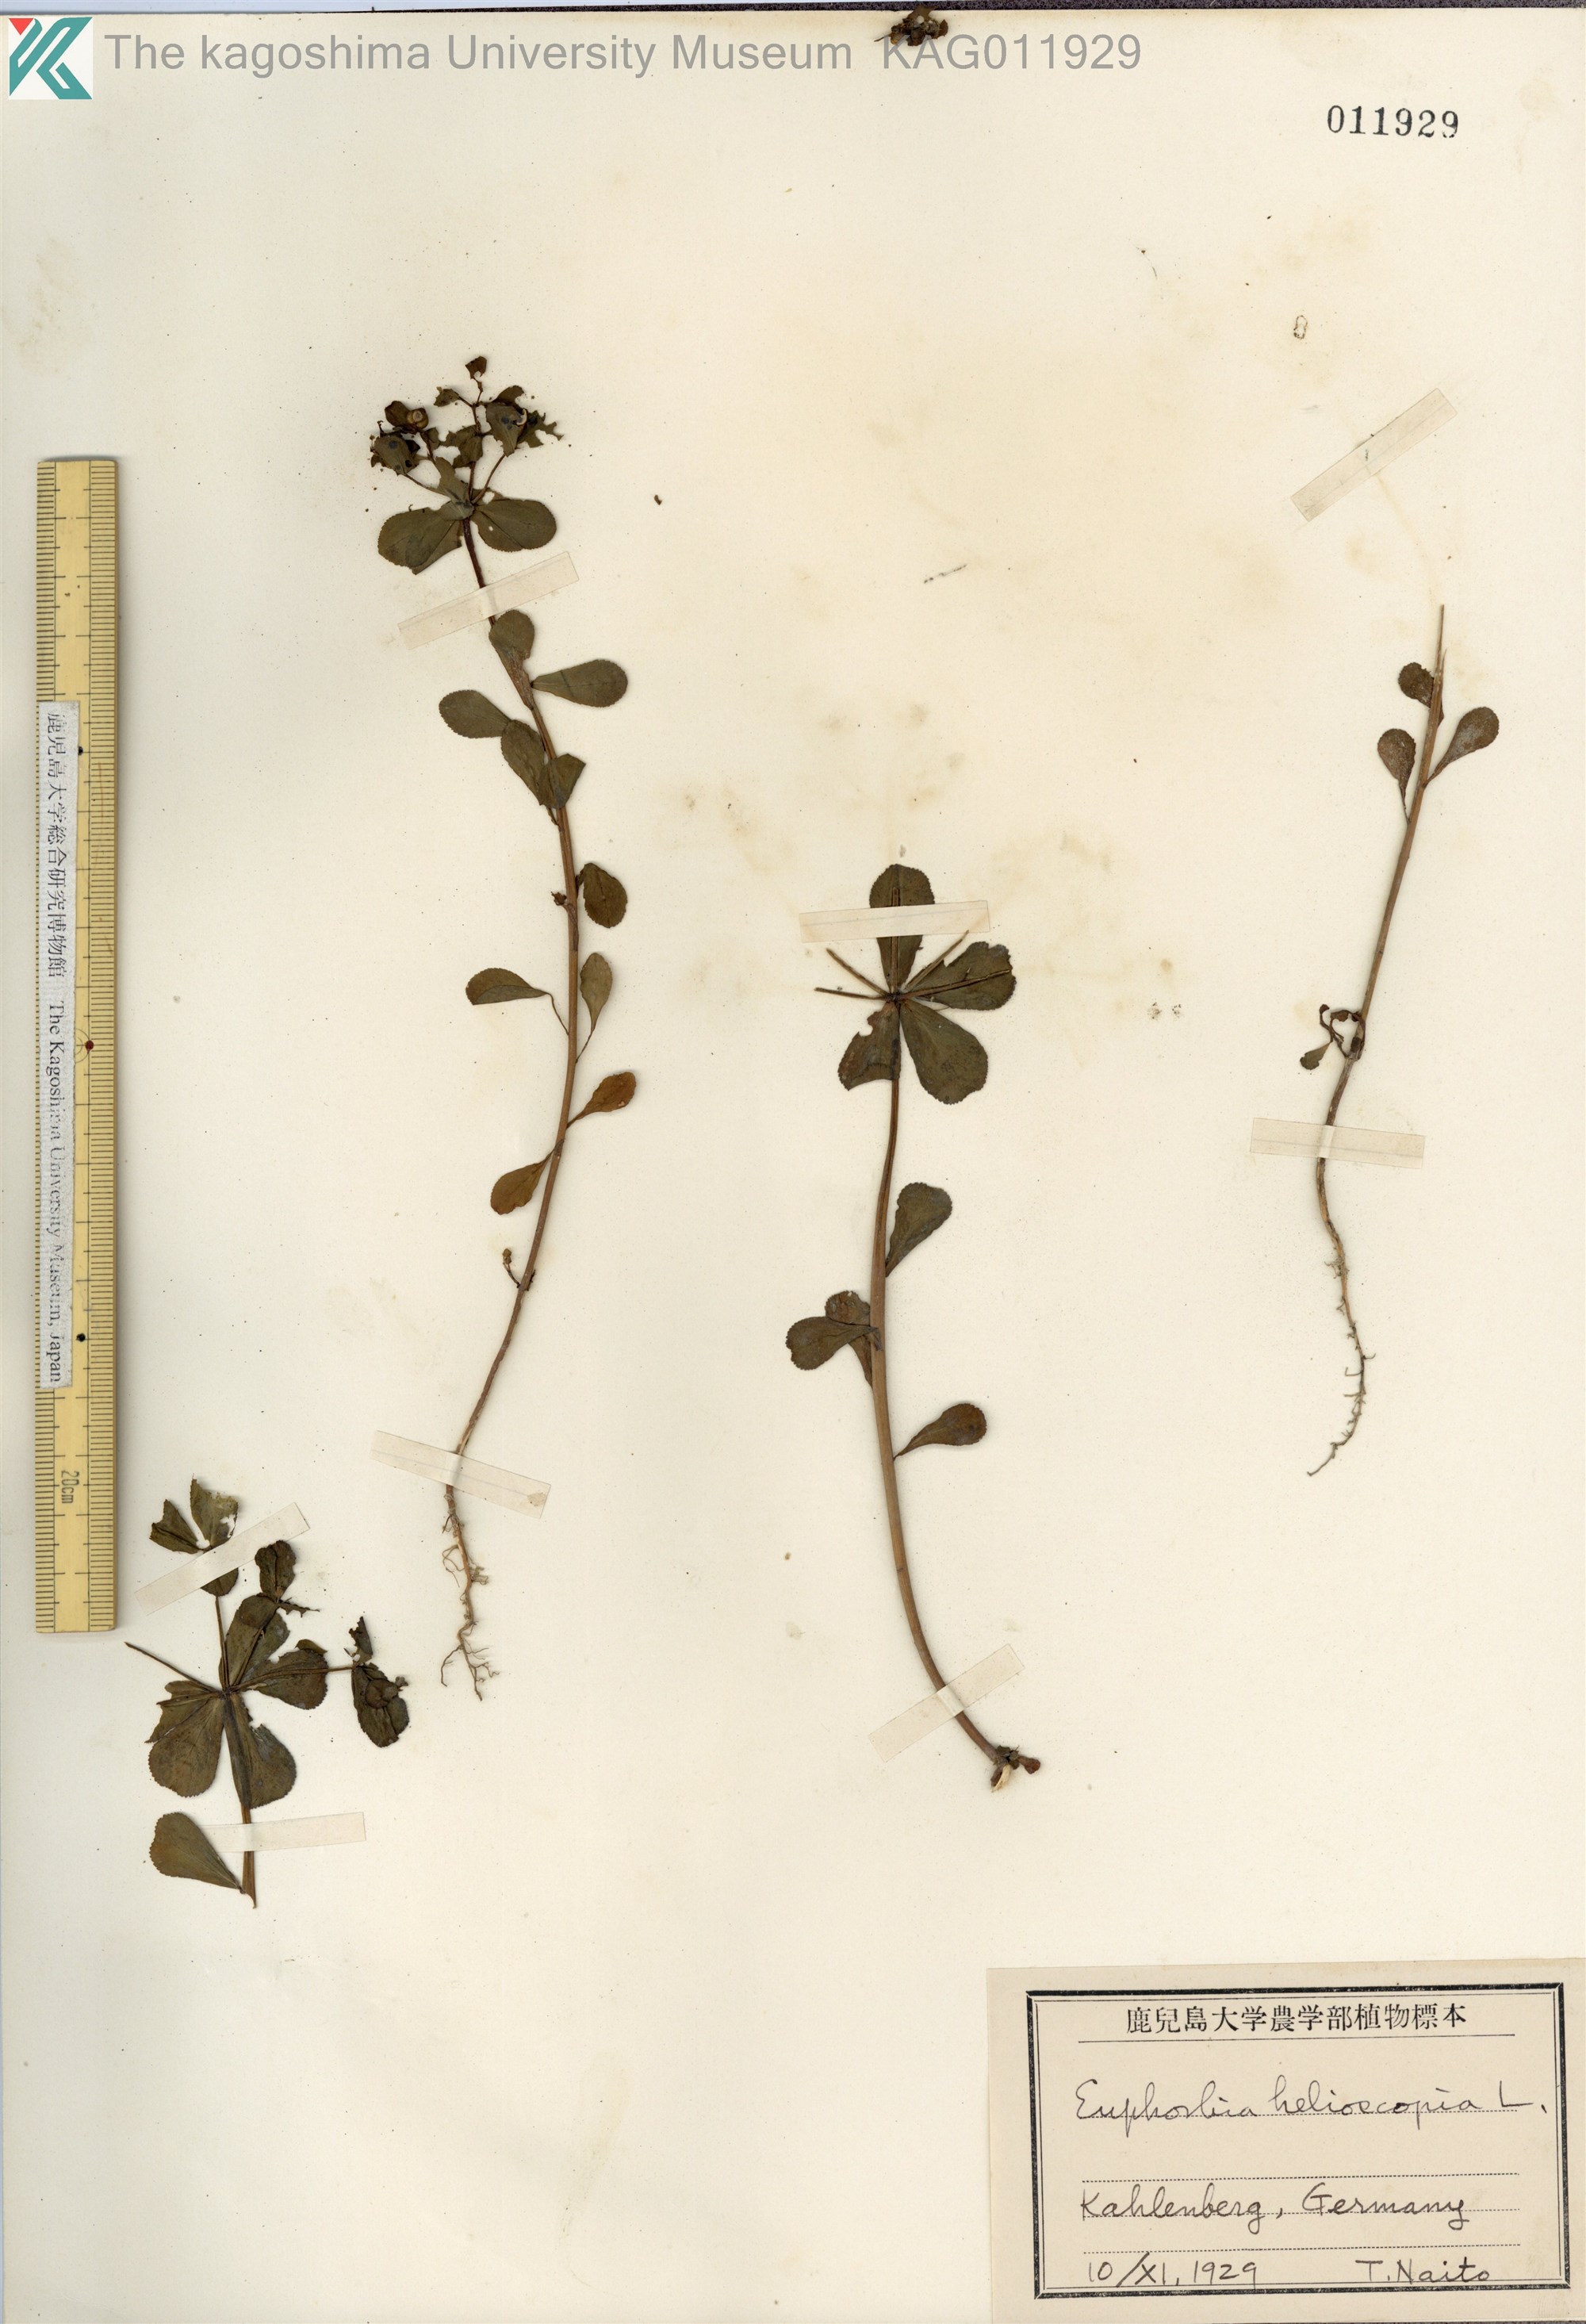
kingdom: Plantae
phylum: Tracheophyta
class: Magnoliopsida
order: Malpighiales
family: Euphorbiaceae
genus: Euphorbia
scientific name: Euphorbia helioscopia
